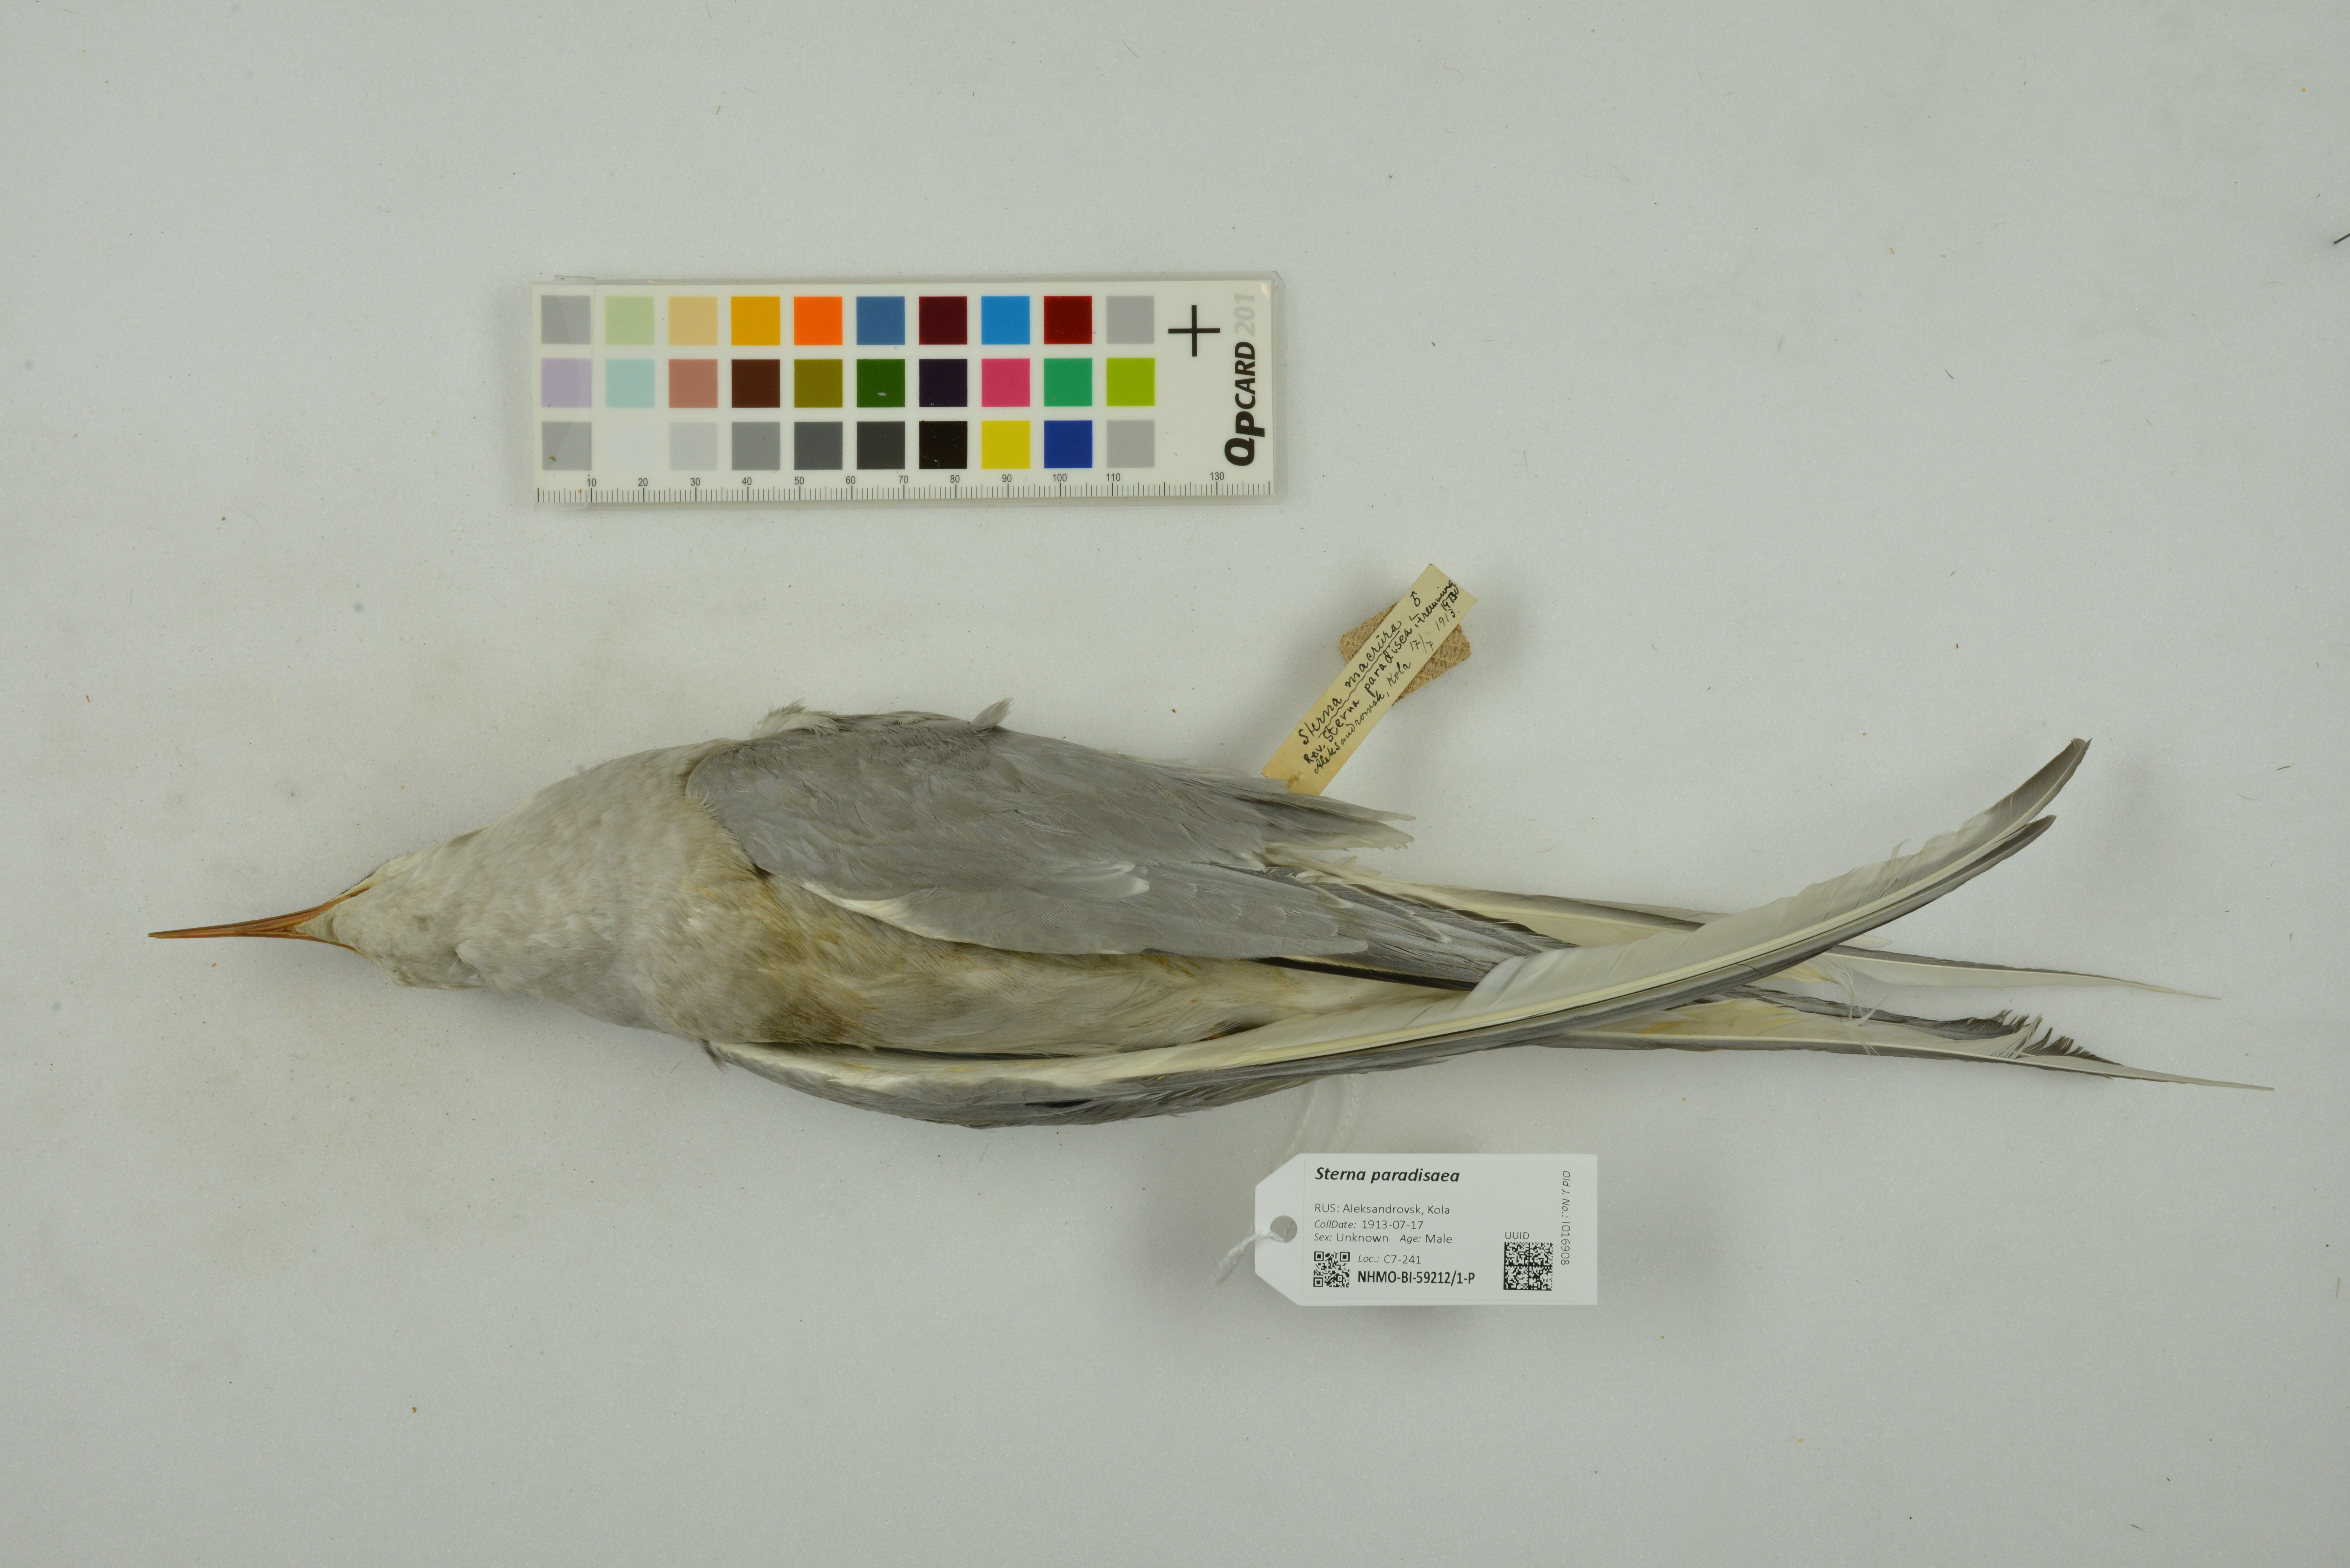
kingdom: Animalia
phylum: Chordata
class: Aves
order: Charadriiformes
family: Laridae
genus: Sterna
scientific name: Sterna paradisaea
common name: Arctic tern
